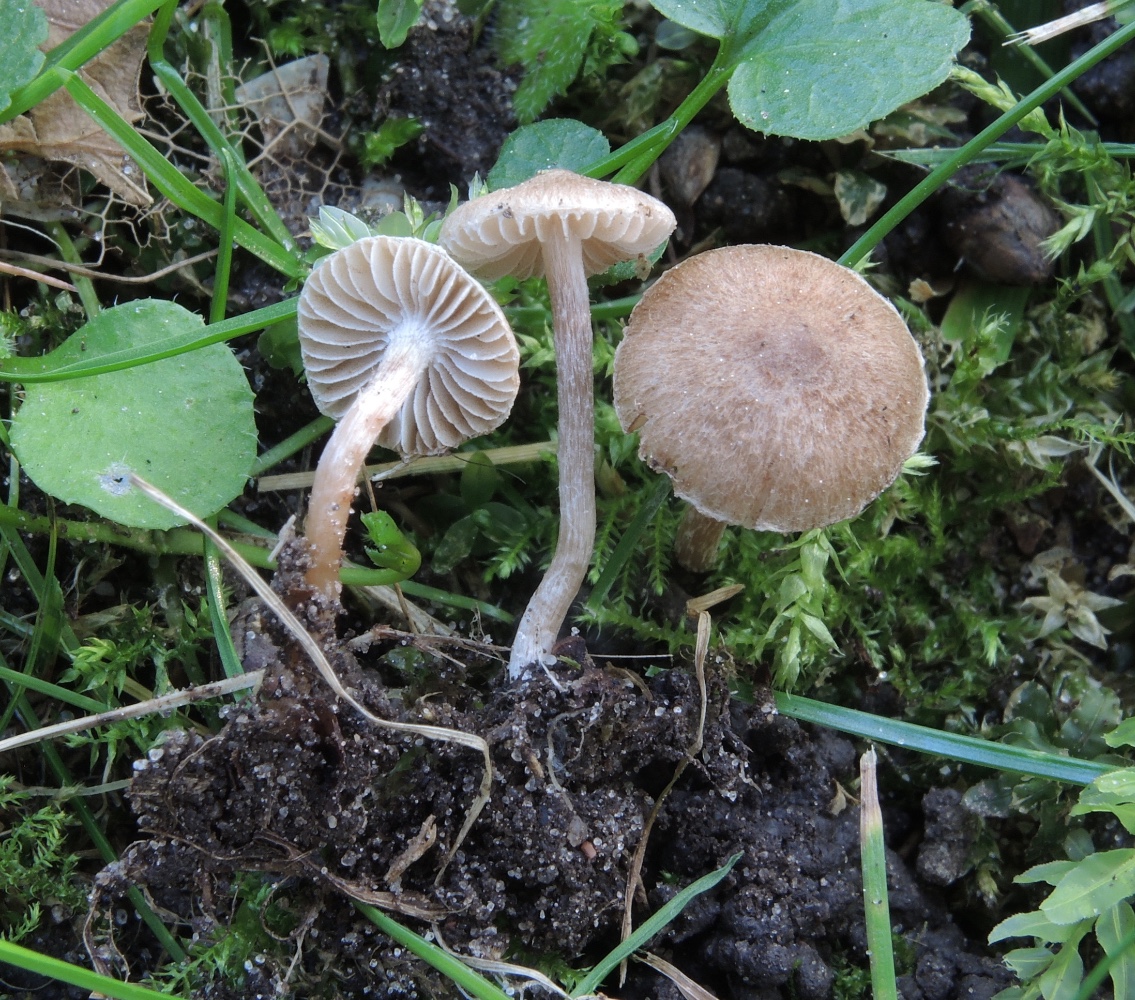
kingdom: Fungi
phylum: Basidiomycota
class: Agaricomycetes
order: Agaricales
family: Inocybaceae
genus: Inocybe
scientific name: Inocybe semifulva
